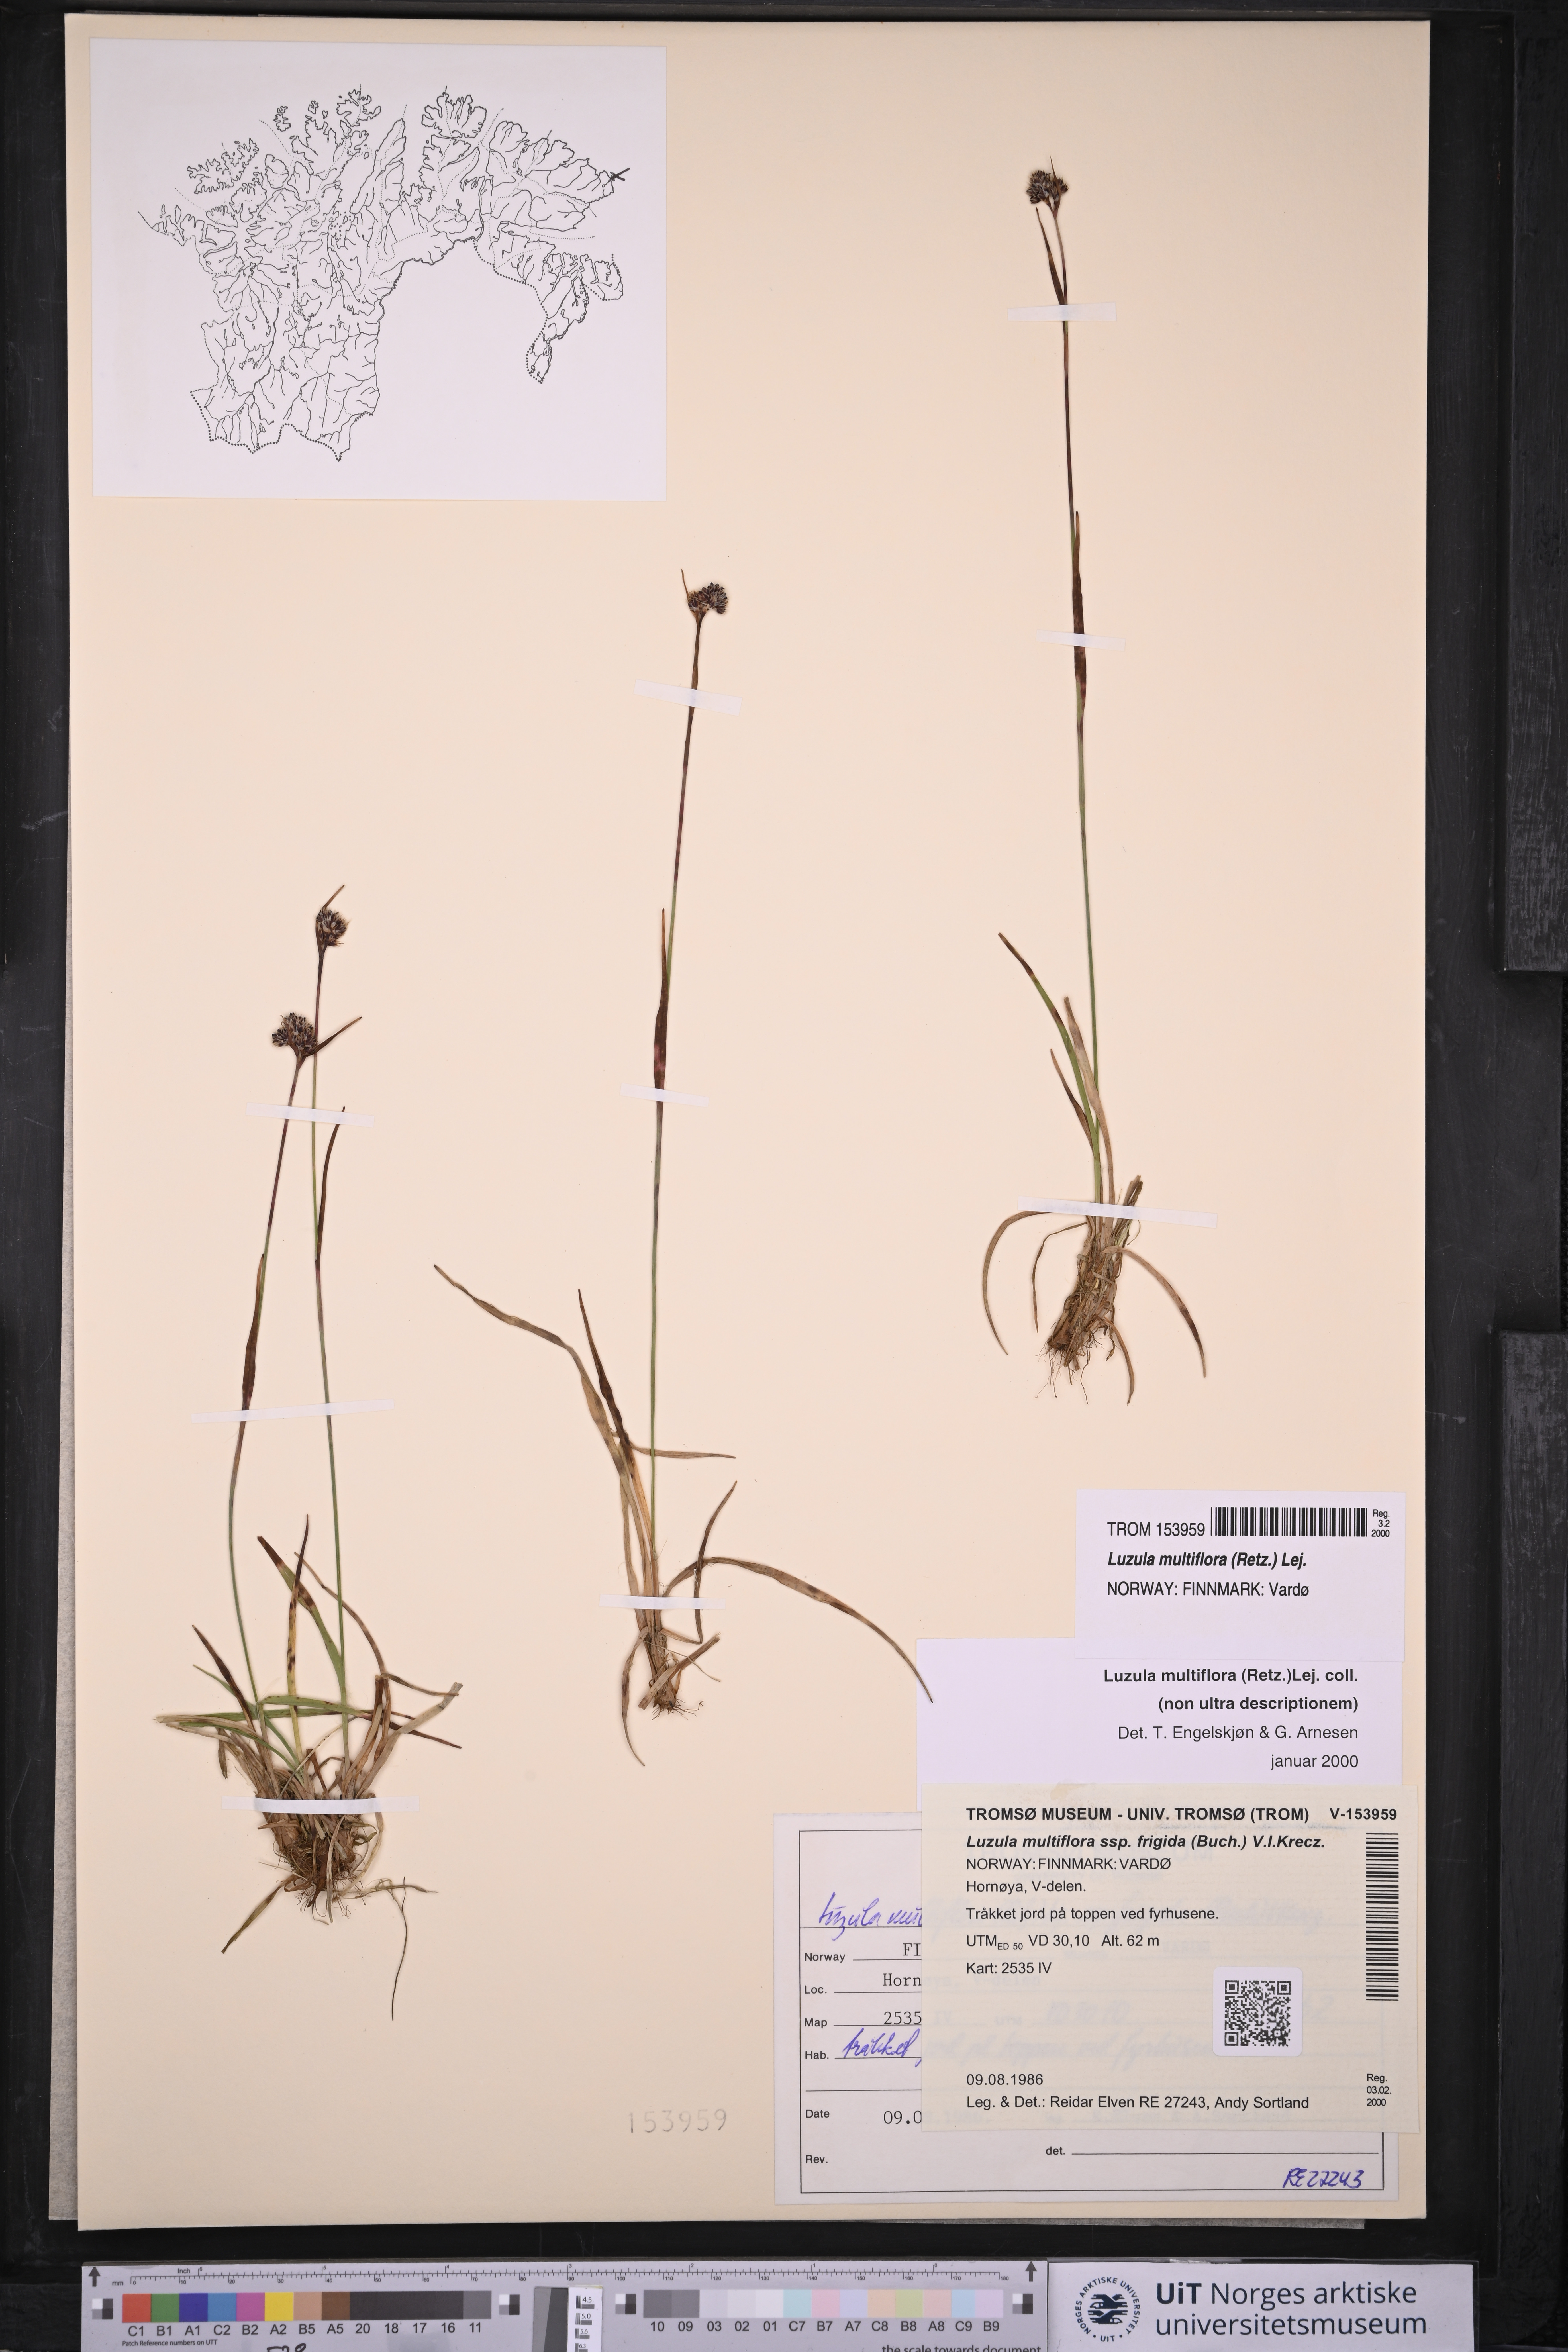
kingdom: Plantae
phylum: Tracheophyta
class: Liliopsida
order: Poales
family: Juncaceae
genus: Luzula
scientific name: Luzula multiflora
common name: Heath wood-rush
